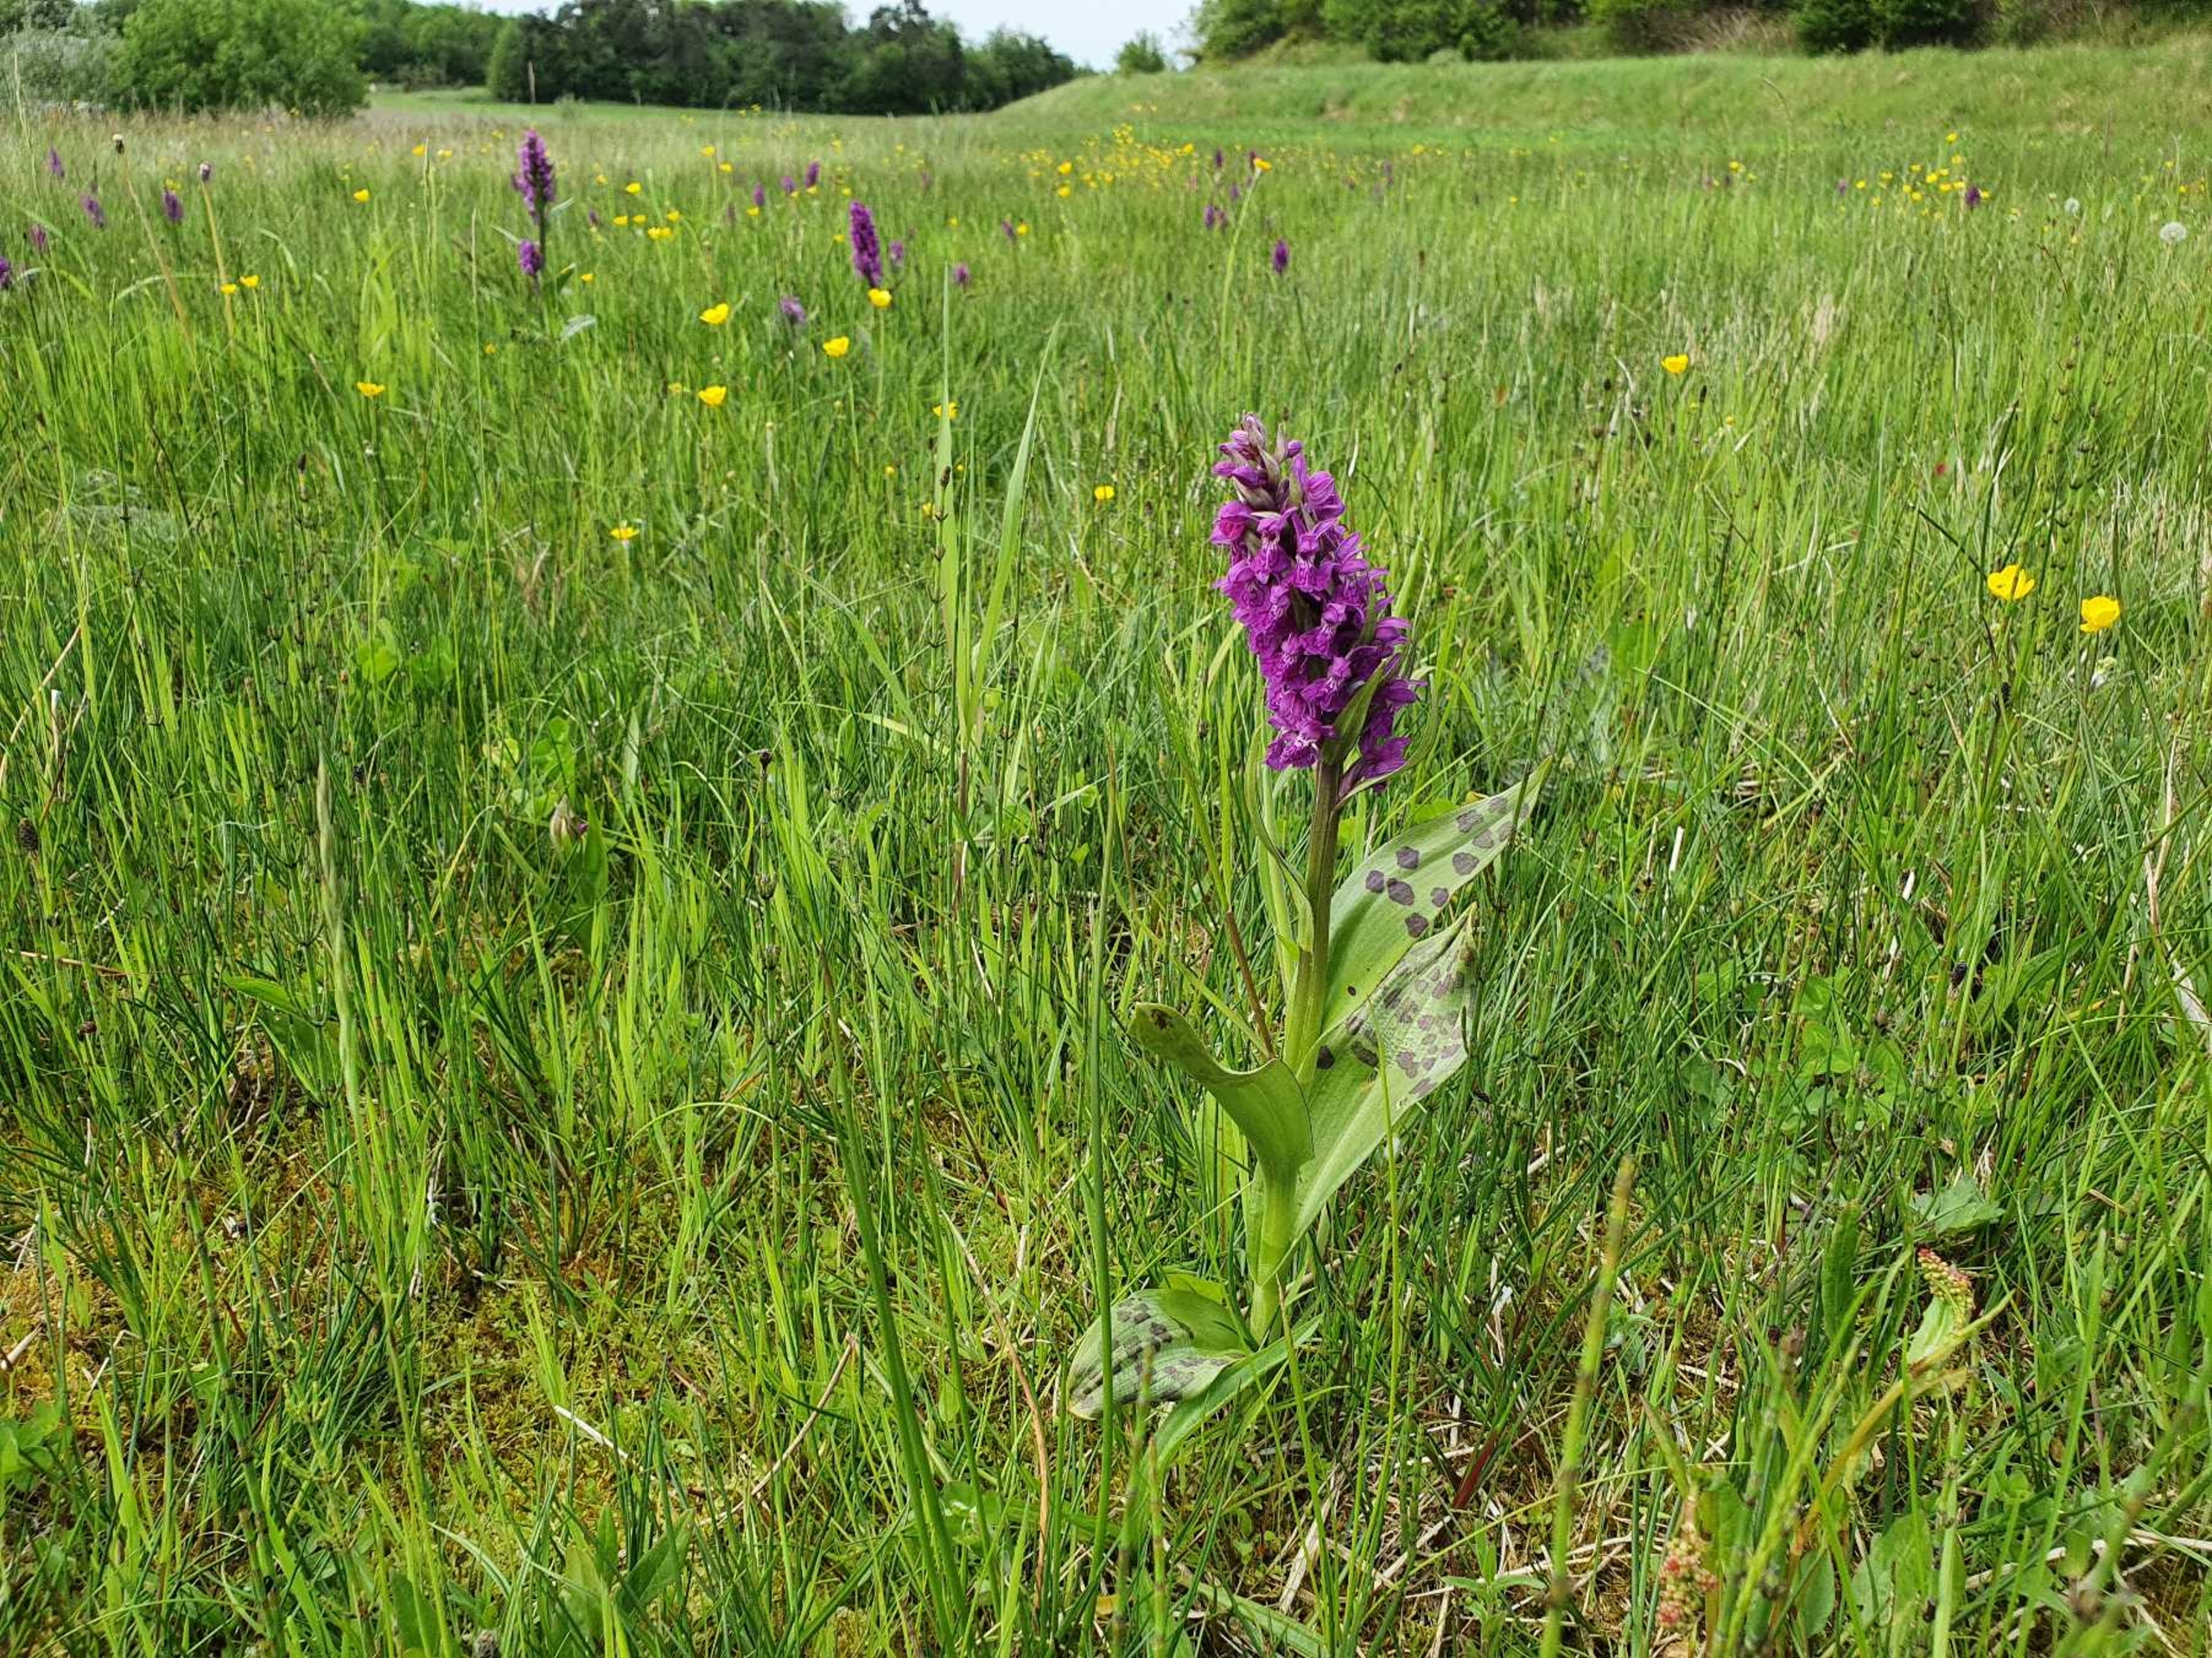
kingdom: Plantae
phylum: Tracheophyta
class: Liliopsida
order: Asparagales
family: Orchidaceae
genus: Dactylorhiza
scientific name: Dactylorhiza majalis
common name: Maj-gøgeurt
